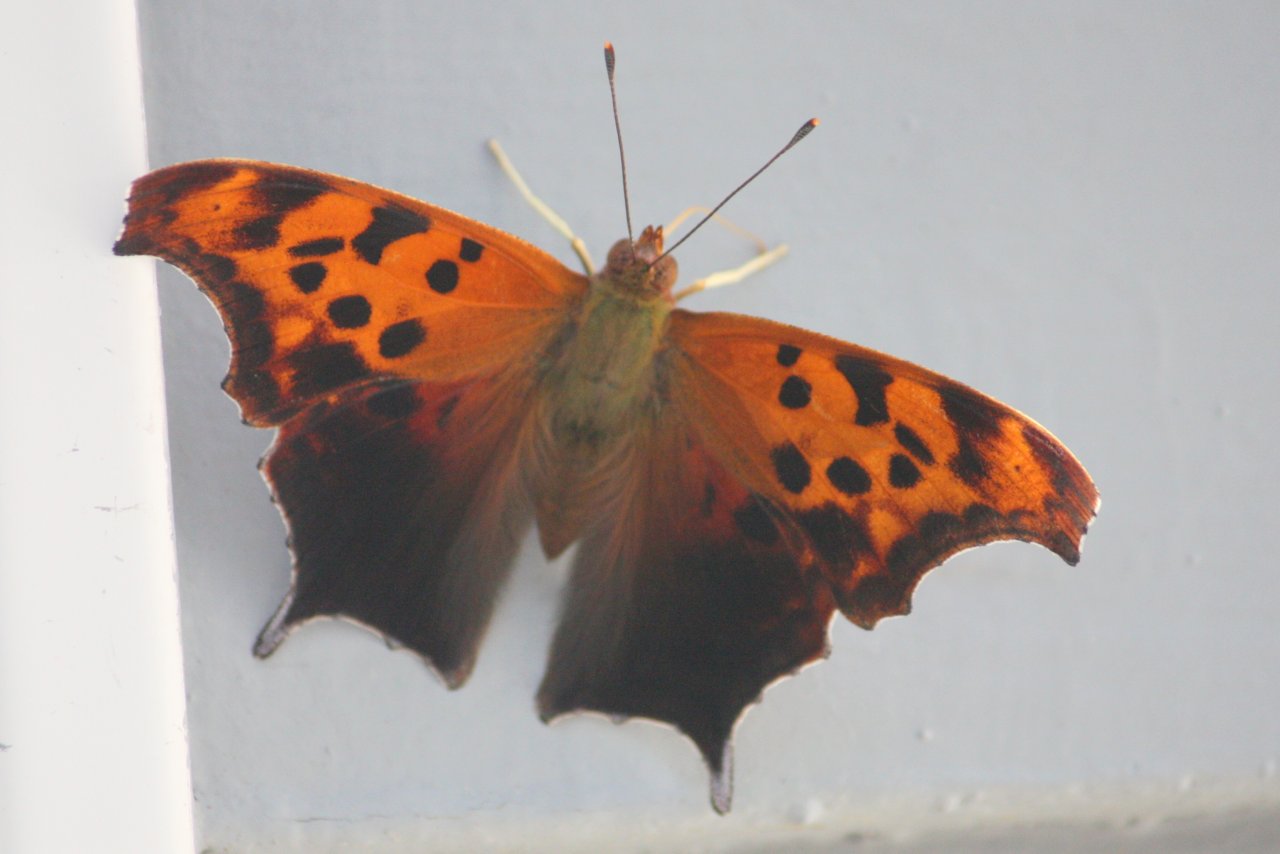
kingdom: Animalia
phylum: Arthropoda
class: Insecta
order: Lepidoptera
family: Nymphalidae
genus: Polygonia
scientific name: Polygonia interrogationis
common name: Question Mark
